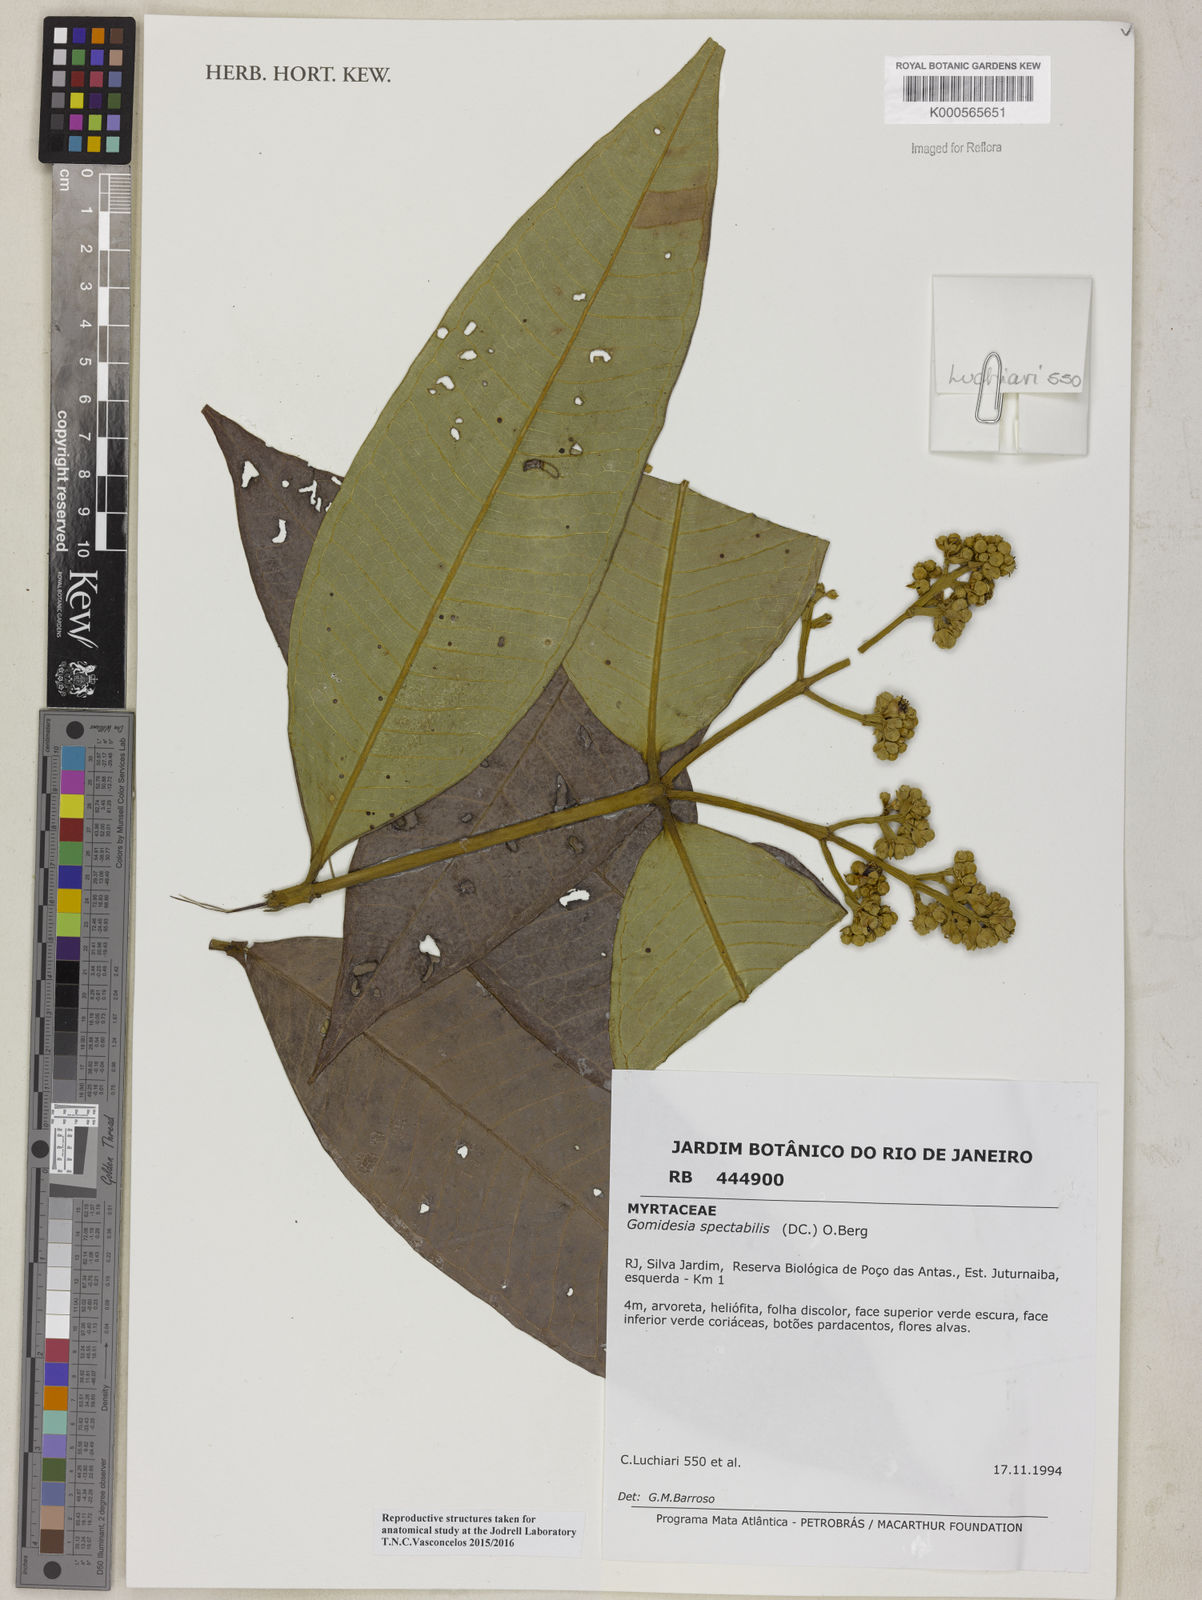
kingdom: Plantae
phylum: Tracheophyta
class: Magnoliopsida
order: Myrtales
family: Myrtaceae
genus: Myrcia
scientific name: Myrcia spectabilis
